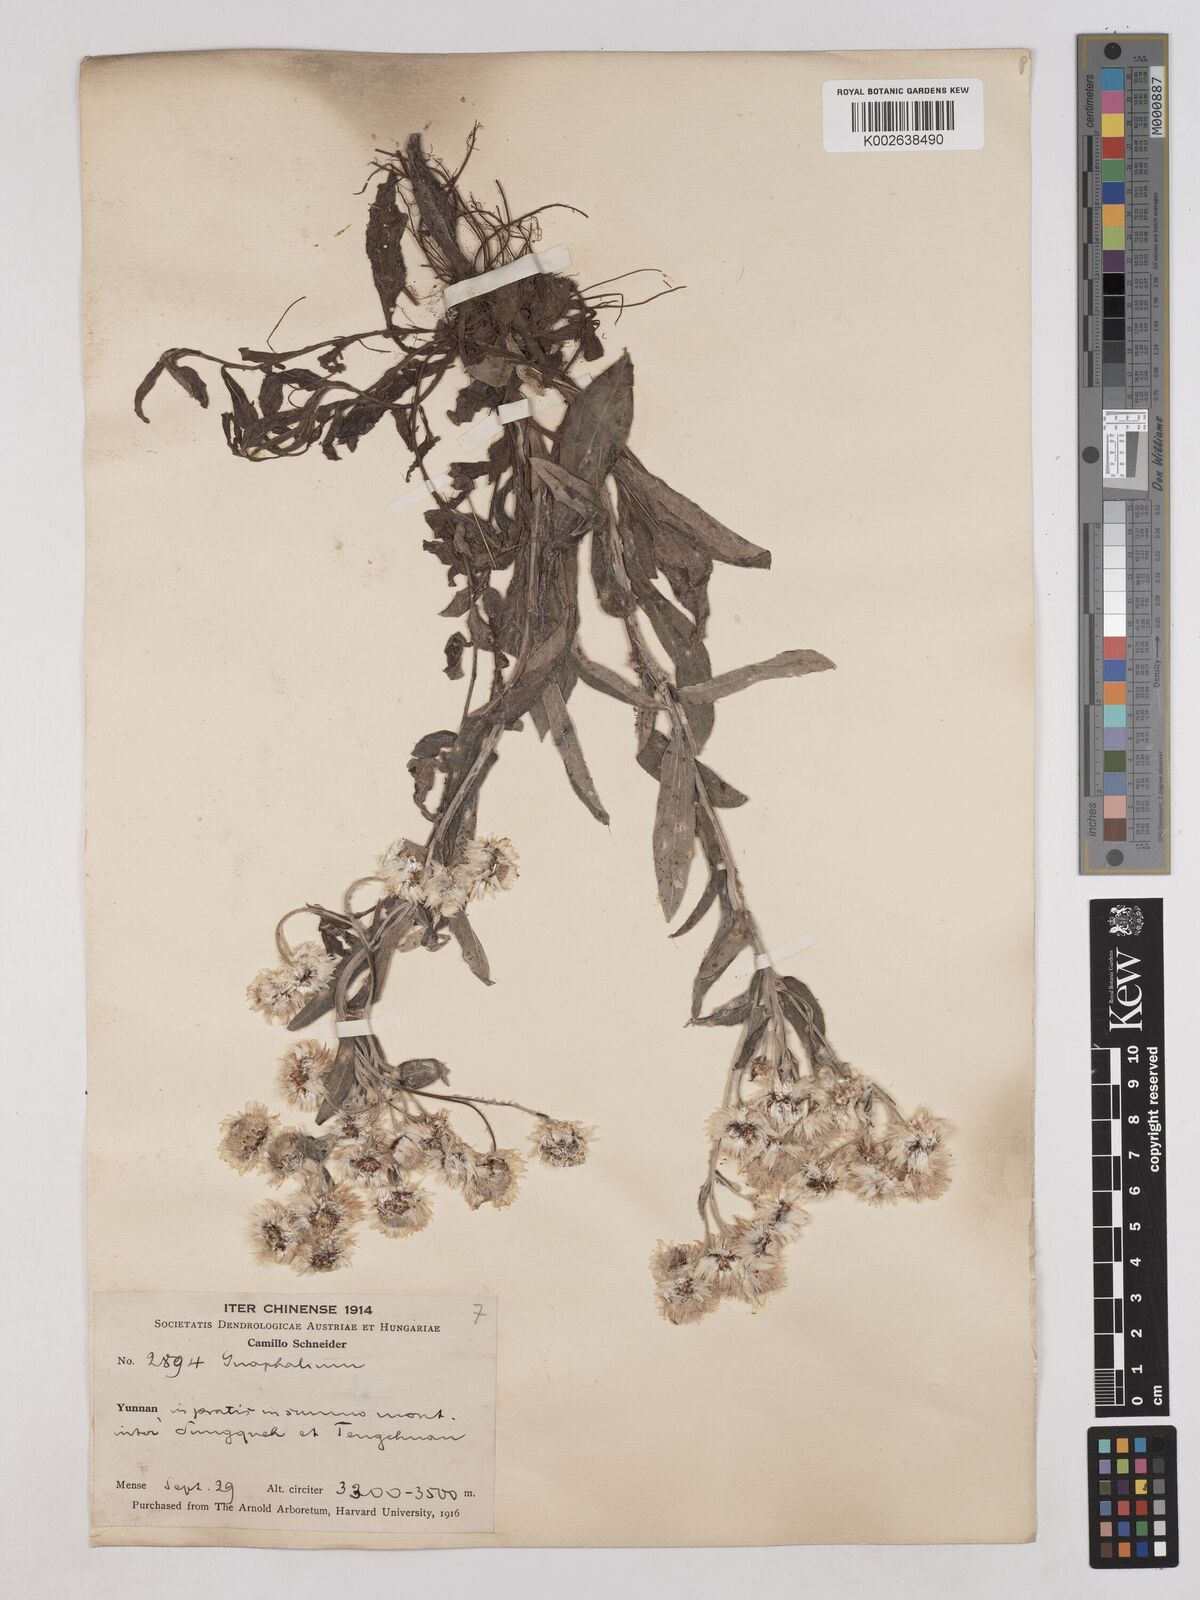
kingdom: Plantae
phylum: Tracheophyta
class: Magnoliopsida
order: Asterales
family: Asteraceae
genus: Anaphalis
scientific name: Anaphalis nepalensis
